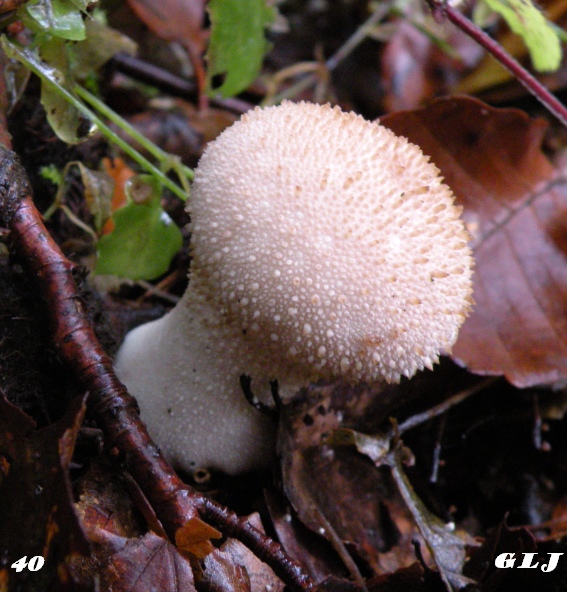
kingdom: Fungi
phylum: Basidiomycota
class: Agaricomycetes
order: Agaricales
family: Lycoperdaceae
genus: Lycoperdon
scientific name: Lycoperdon perlatum
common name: krystal-støvbold
